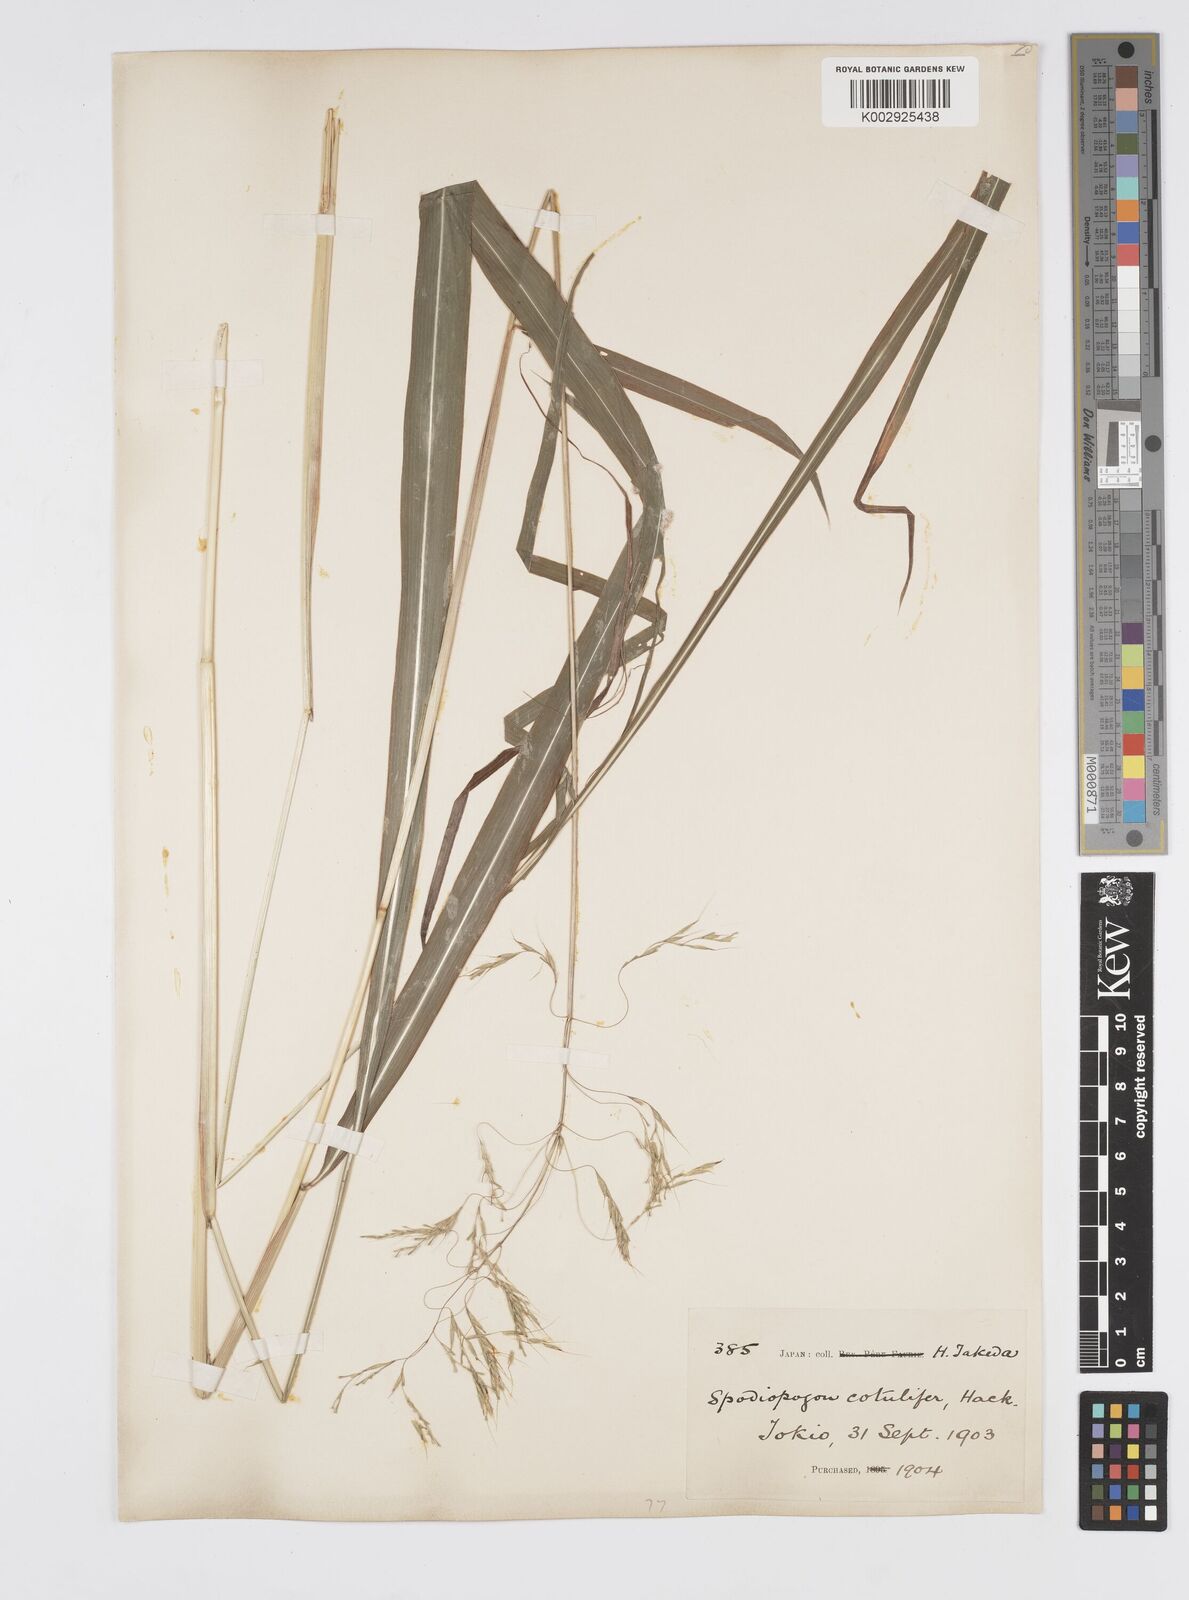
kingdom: Plantae
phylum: Tracheophyta
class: Liliopsida
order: Poales
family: Poaceae
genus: Spodiopogon
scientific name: Spodiopogon cotulifer
